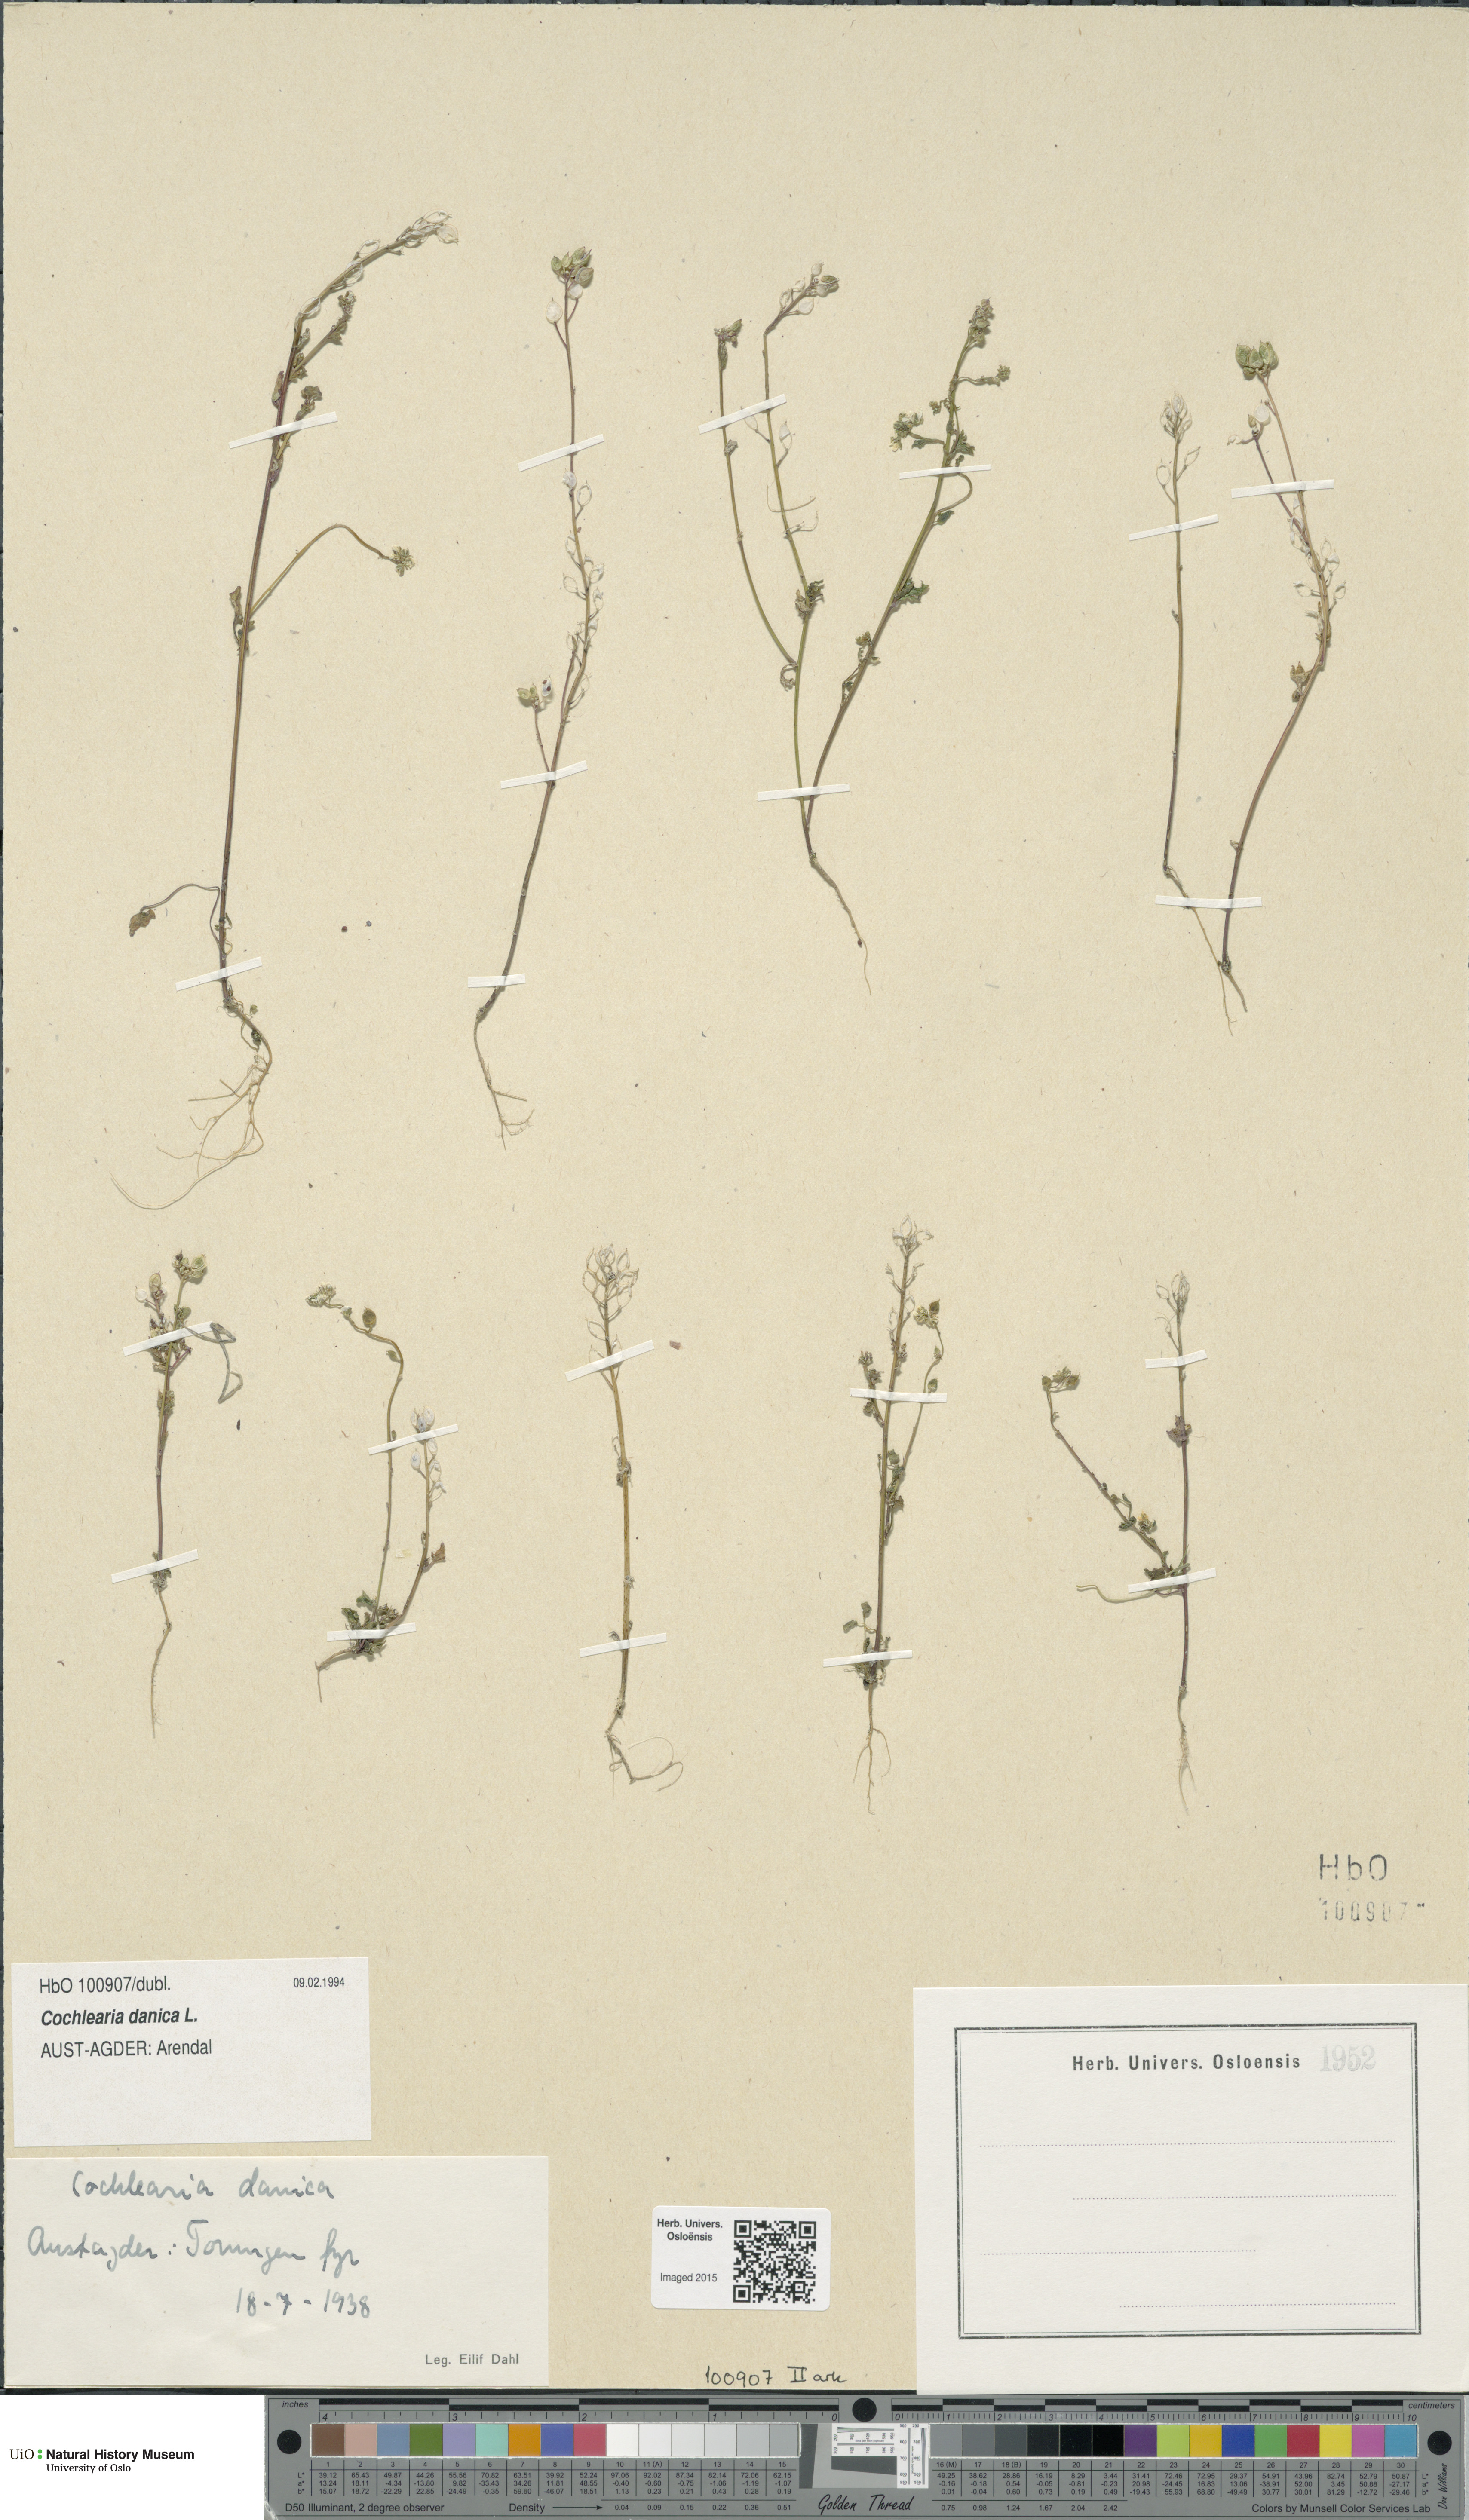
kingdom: Plantae
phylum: Tracheophyta
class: Magnoliopsida
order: Brassicales
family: Brassicaceae
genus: Cochlearia
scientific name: Cochlearia danica
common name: Early scurvygrass
